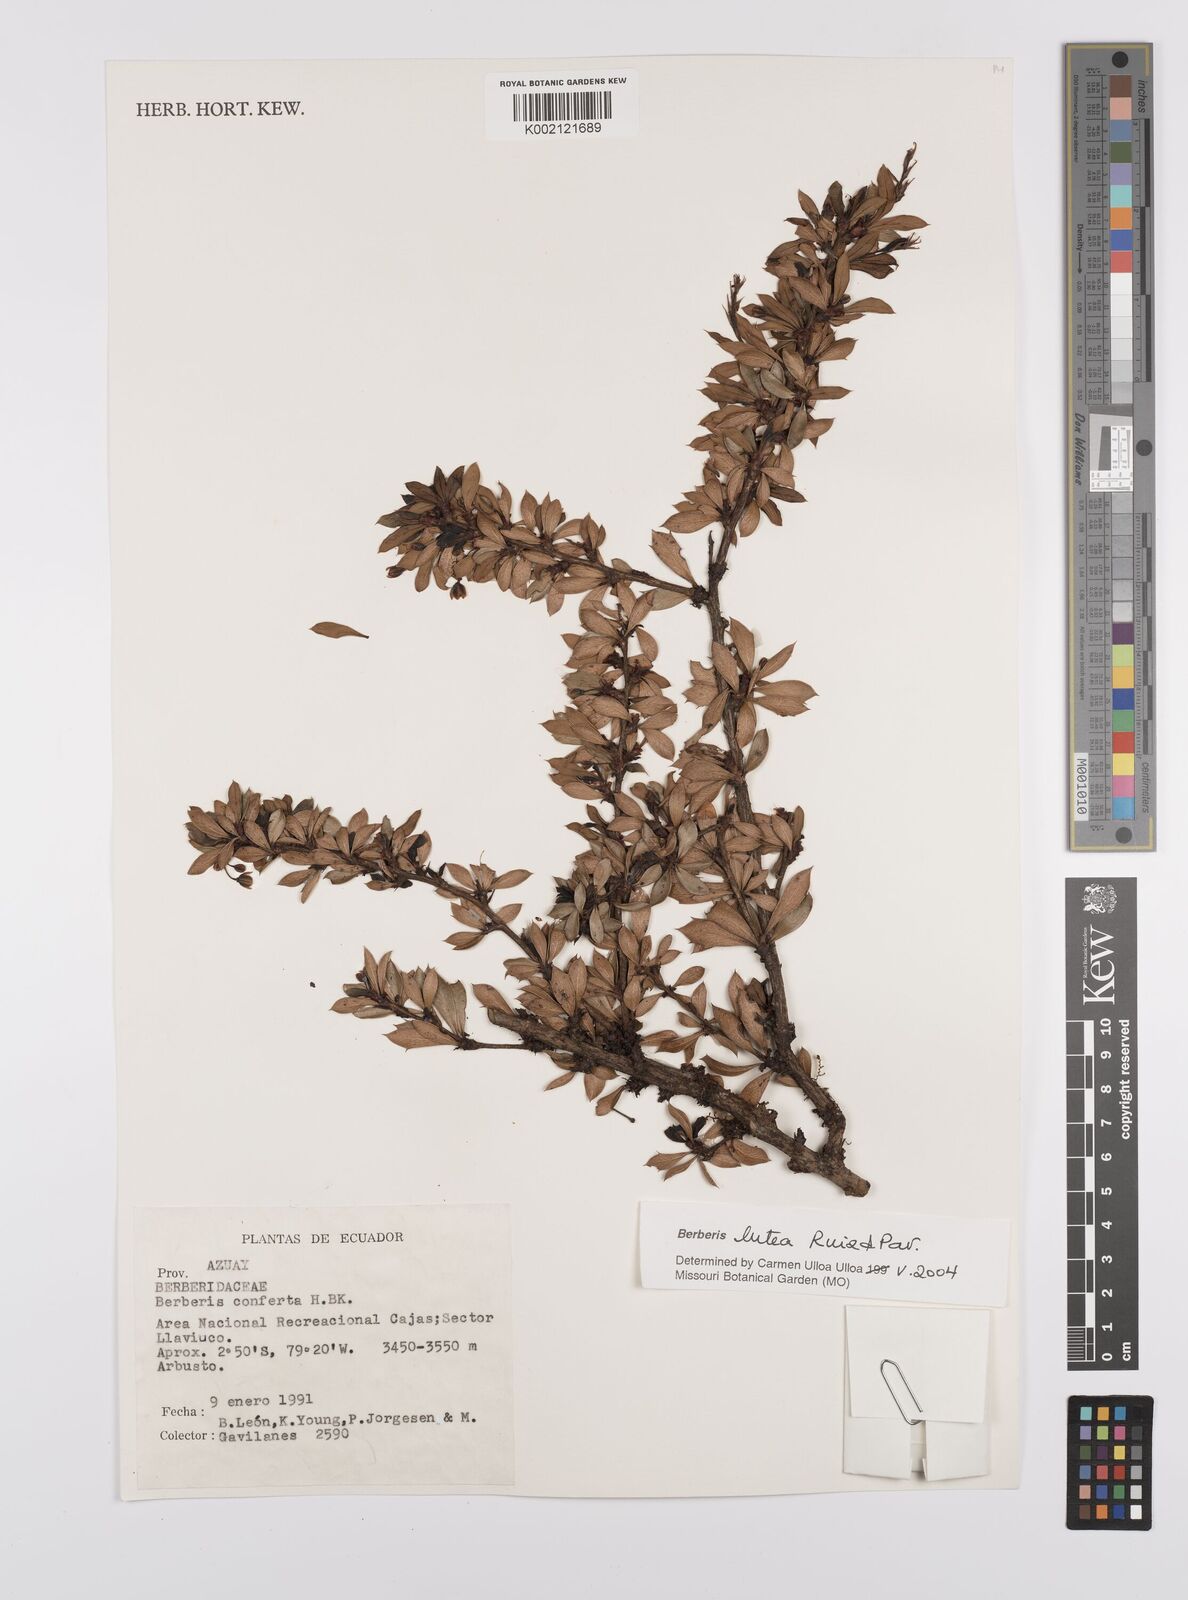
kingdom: Plantae
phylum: Tracheophyta
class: Magnoliopsida
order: Ranunculales
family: Berberidaceae
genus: Berberis
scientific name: Berberis lutea
